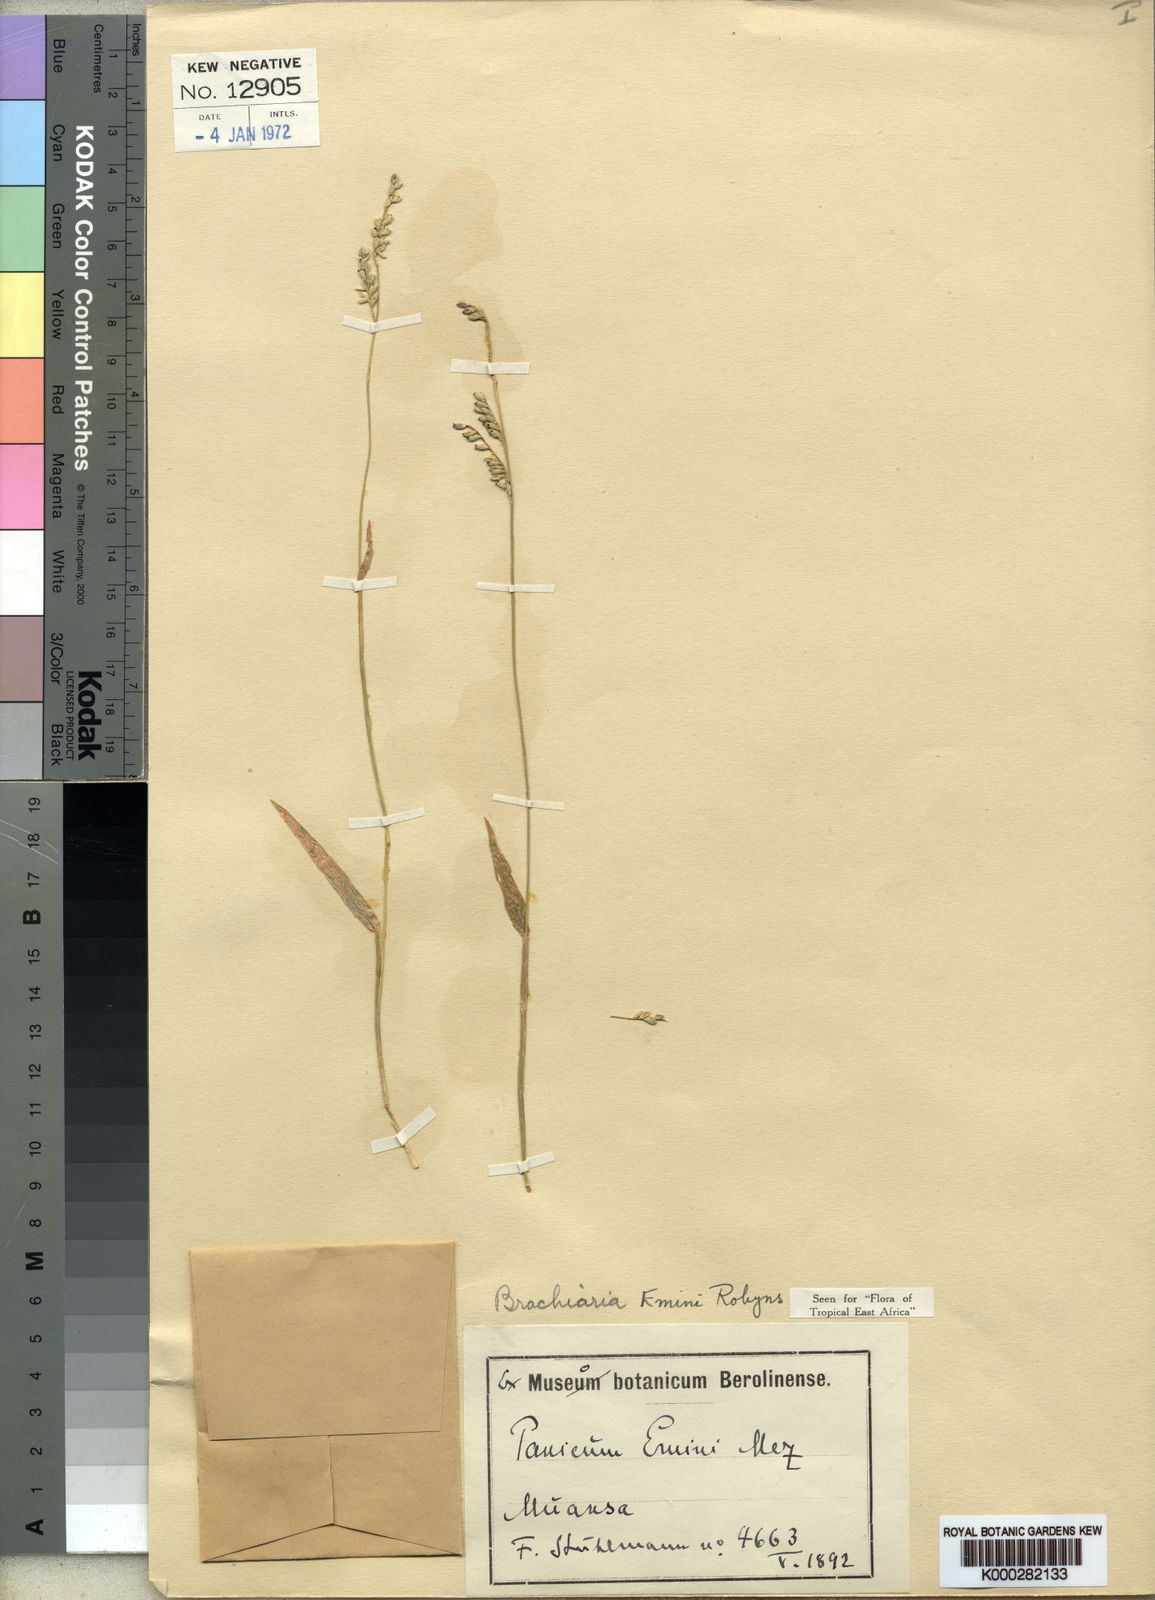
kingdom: Plantae
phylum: Tracheophyta
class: Liliopsida
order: Poales
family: Poaceae
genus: Urochloa
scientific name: Urochloa eminii
